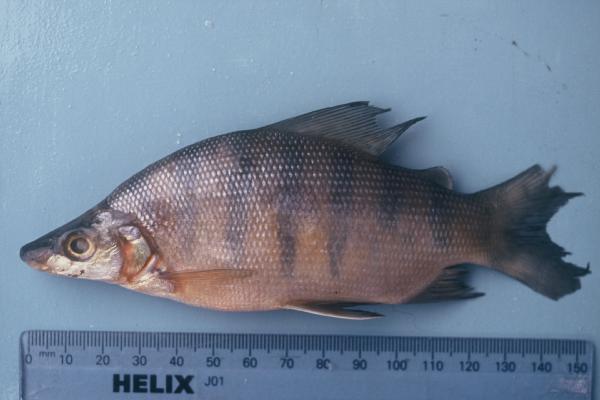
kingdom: Animalia
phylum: Chordata
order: Characiformes
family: Distichodontidae
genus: Distichodus
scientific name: Distichodus mossambicus
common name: Nkupe
